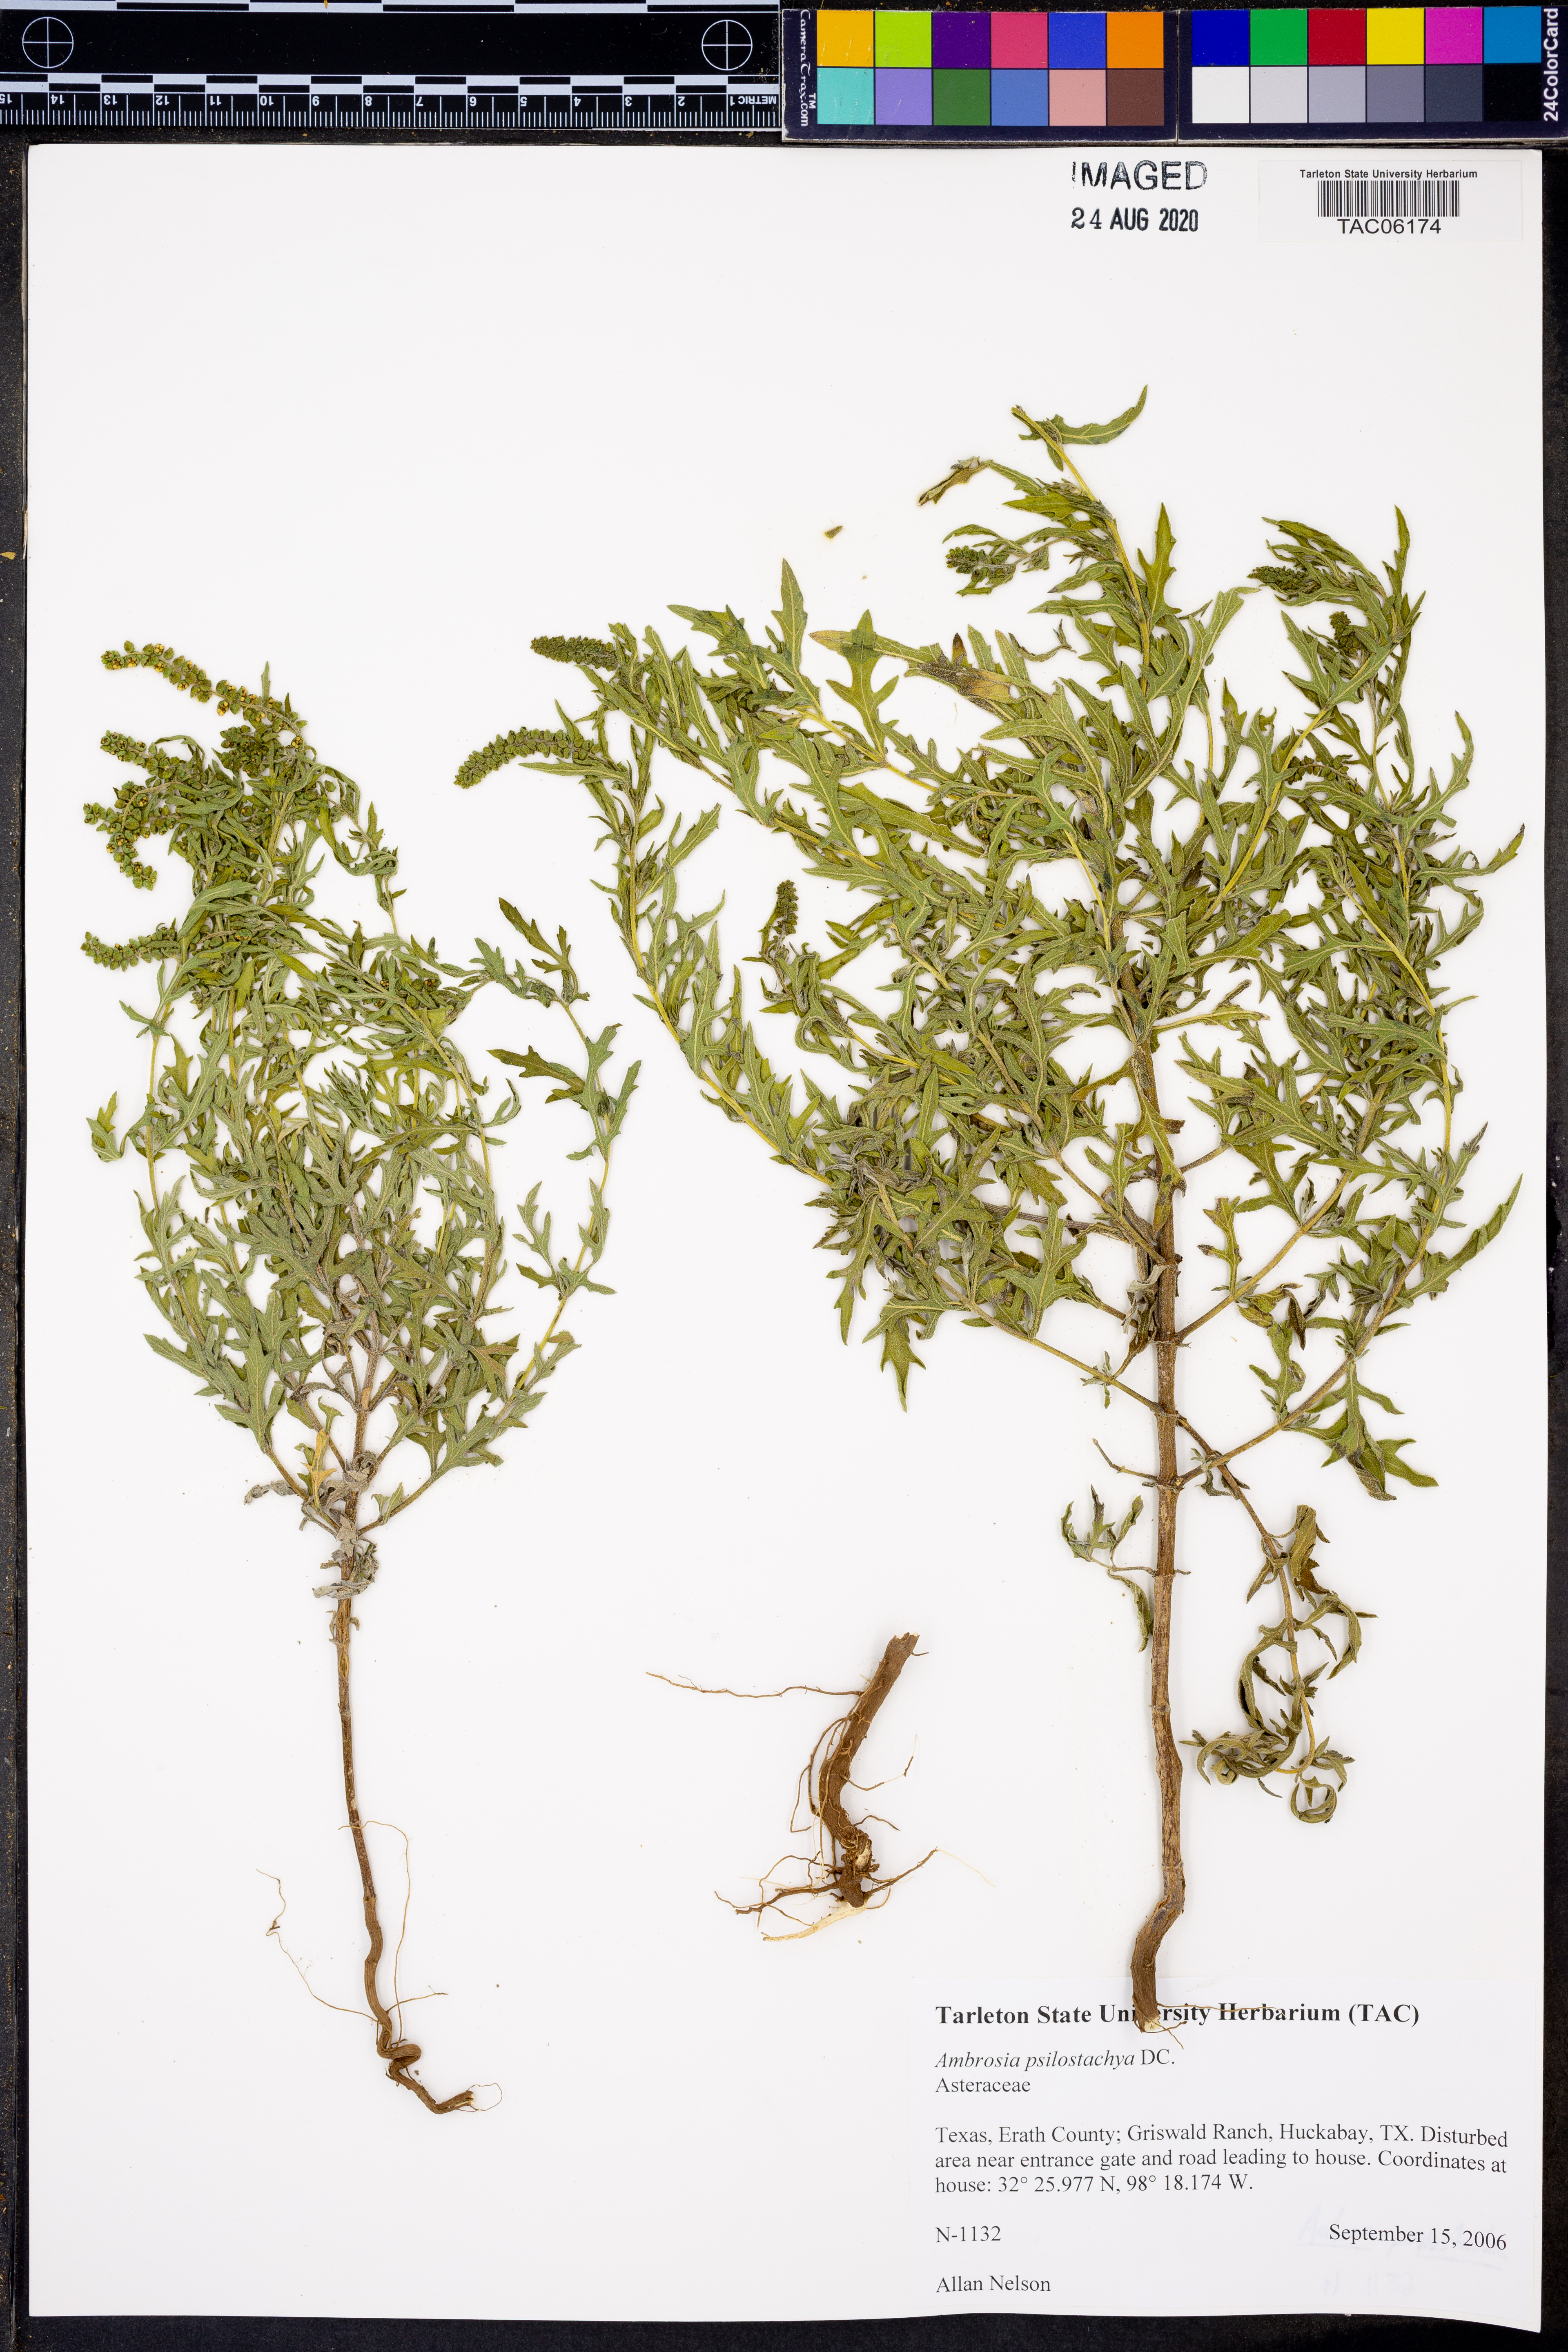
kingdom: Plantae
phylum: Tracheophyta
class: Magnoliopsida
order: Asterales
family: Asteraceae
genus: Ambrosia
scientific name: Ambrosia psilostachya
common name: Perennial ragweed
